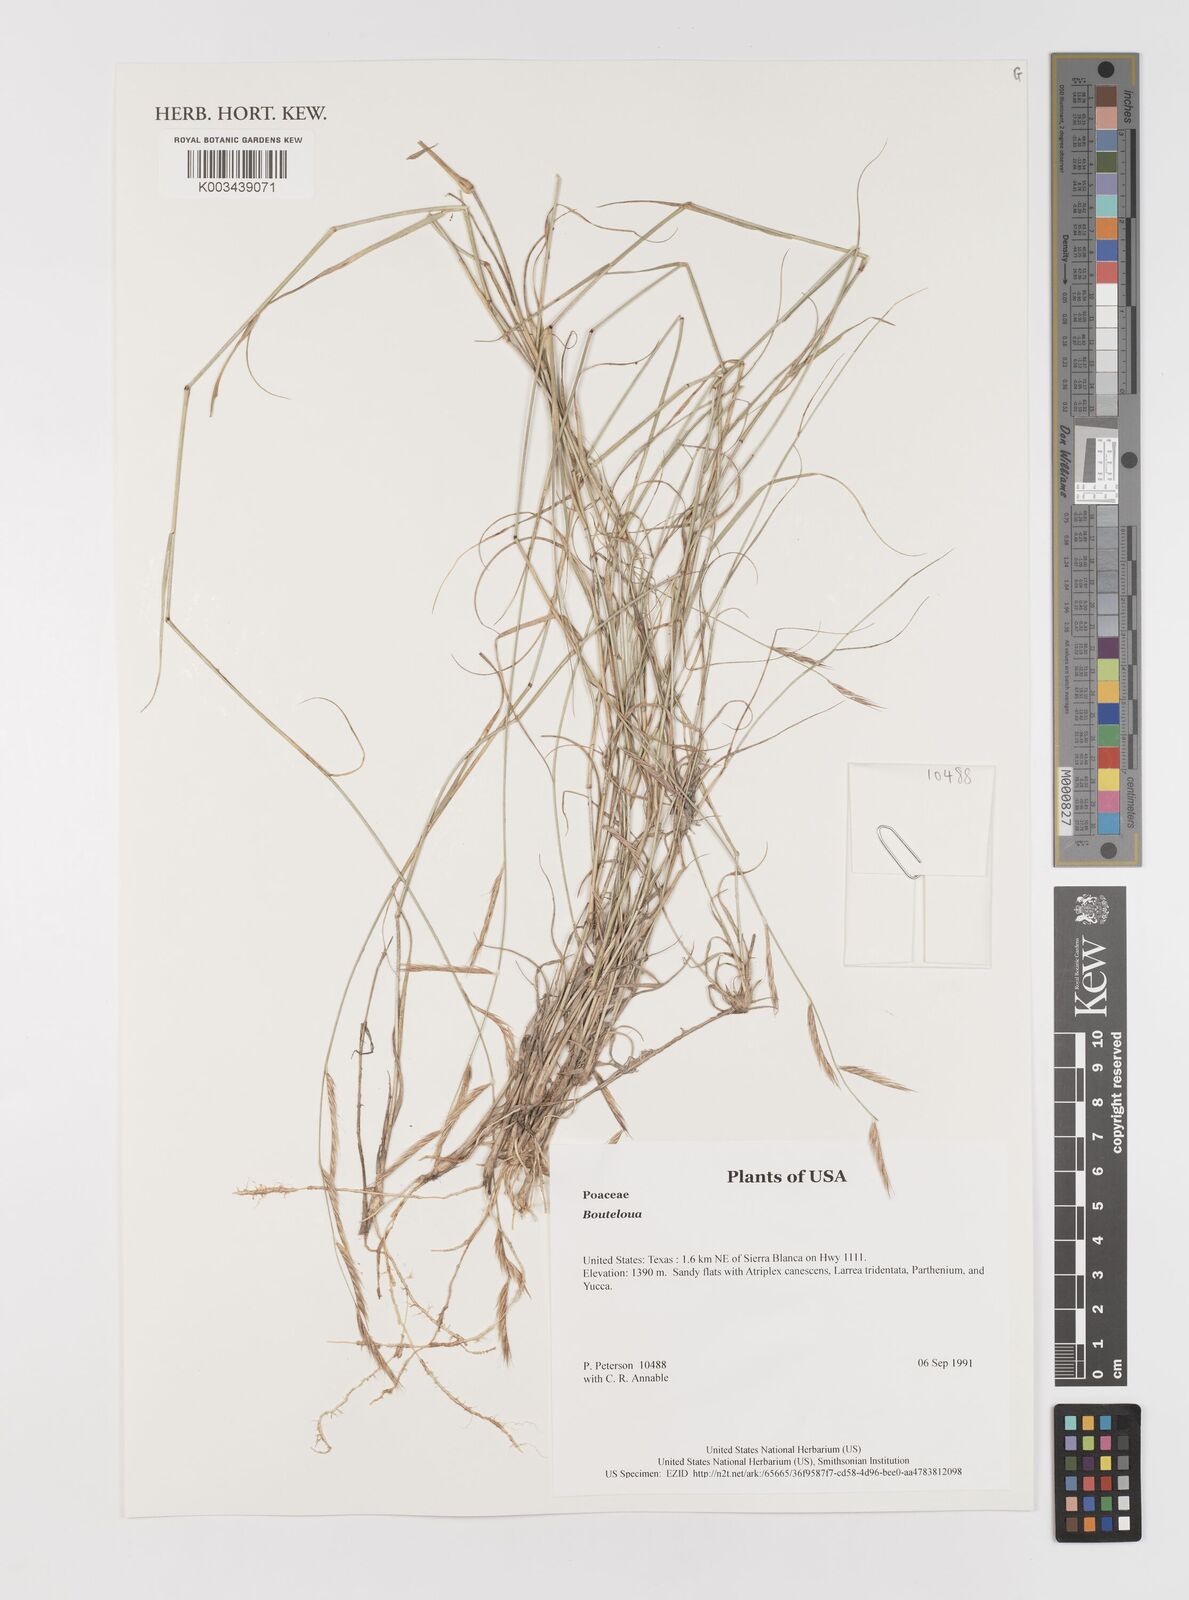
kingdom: Plantae
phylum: Tracheophyta
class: Liliopsida
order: Poales
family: Poaceae
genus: Bouteloua
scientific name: Bouteloua
